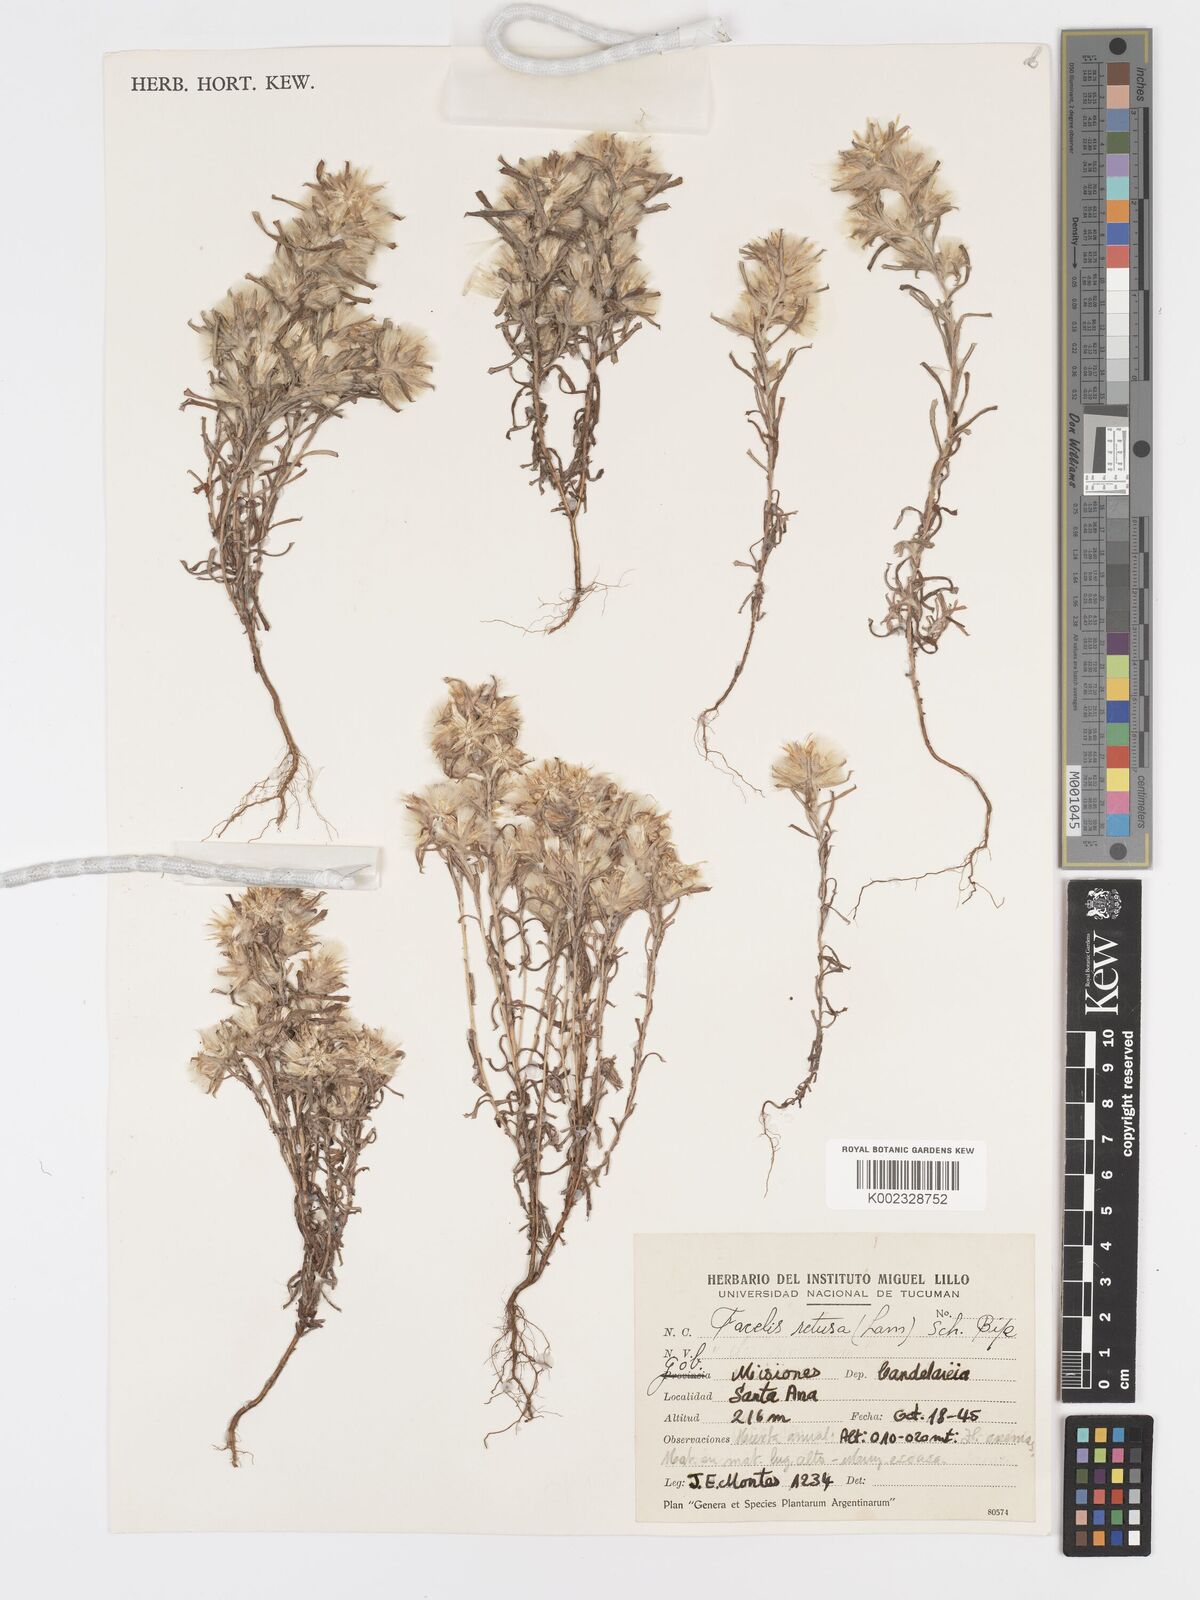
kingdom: Plantae
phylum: Tracheophyta
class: Magnoliopsida
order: Asterales
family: Asteraceae
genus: Facelis
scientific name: Facelis retusa
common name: Annual trampweed
